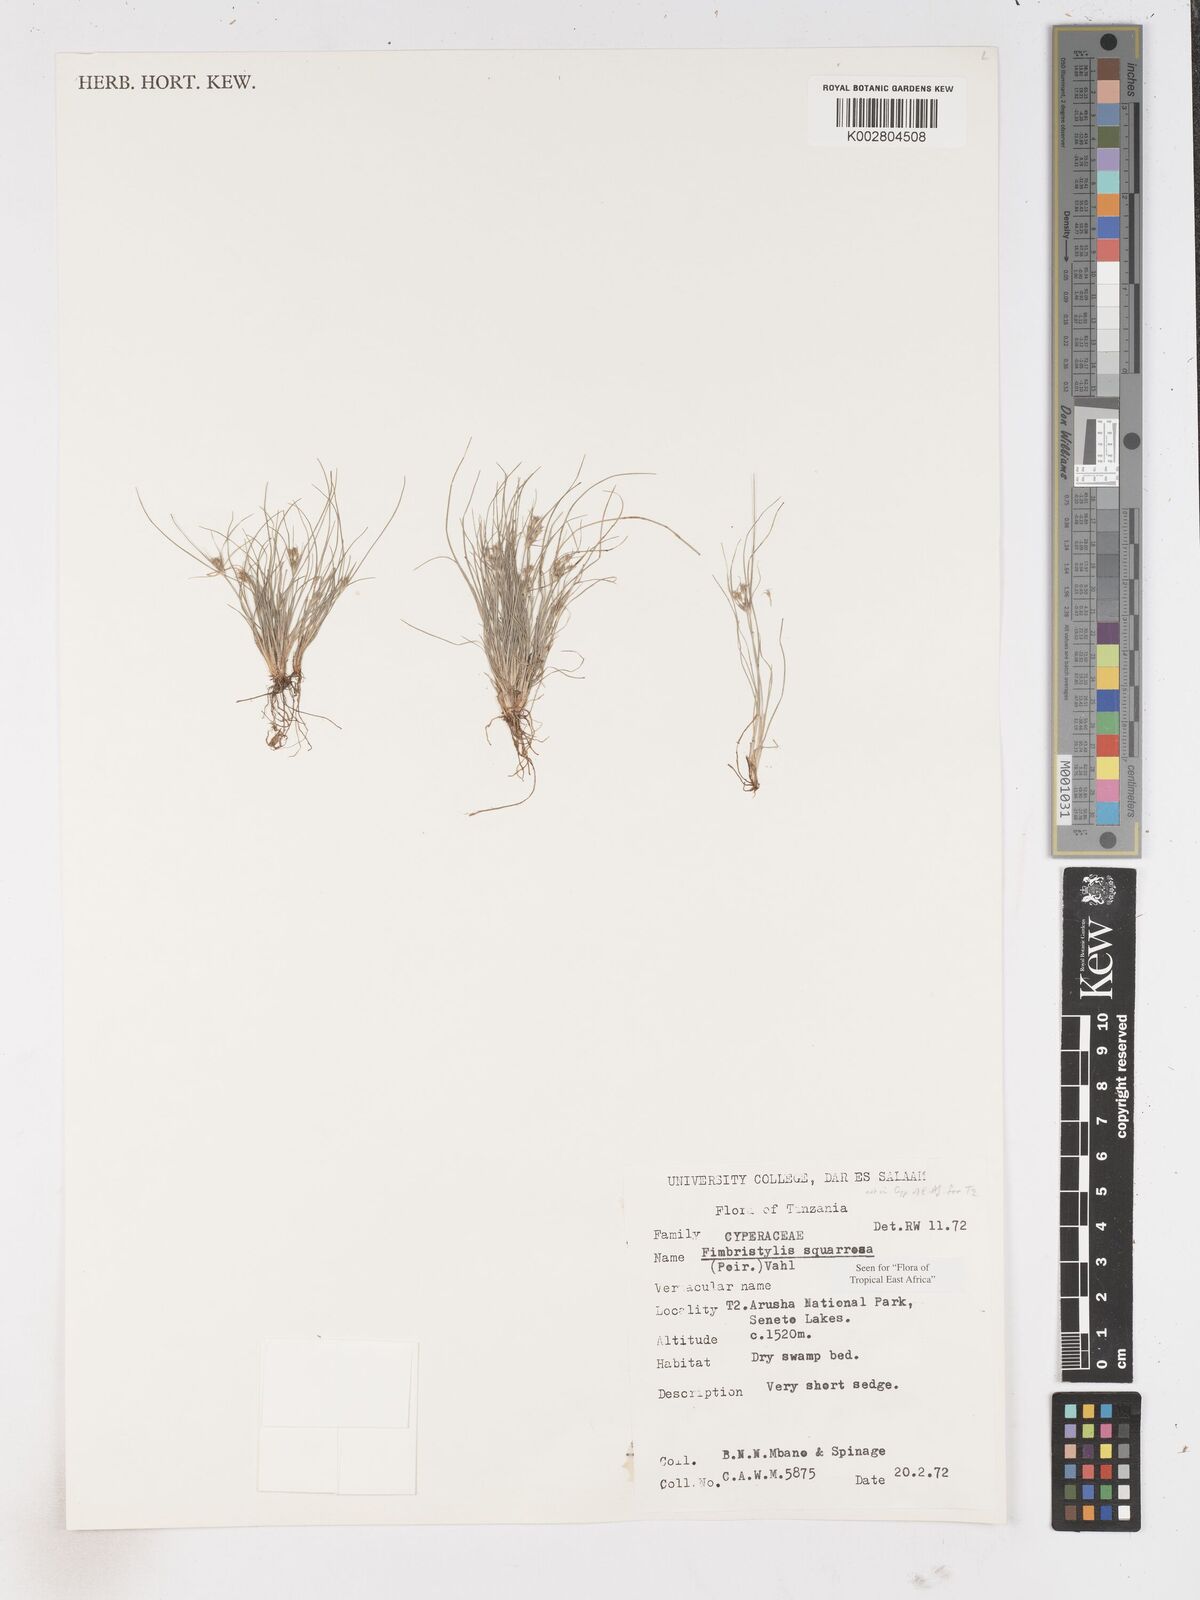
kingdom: Plantae
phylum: Tracheophyta
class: Liliopsida
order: Poales
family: Cyperaceae
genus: Fimbristylis
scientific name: Fimbristylis squarrosa
